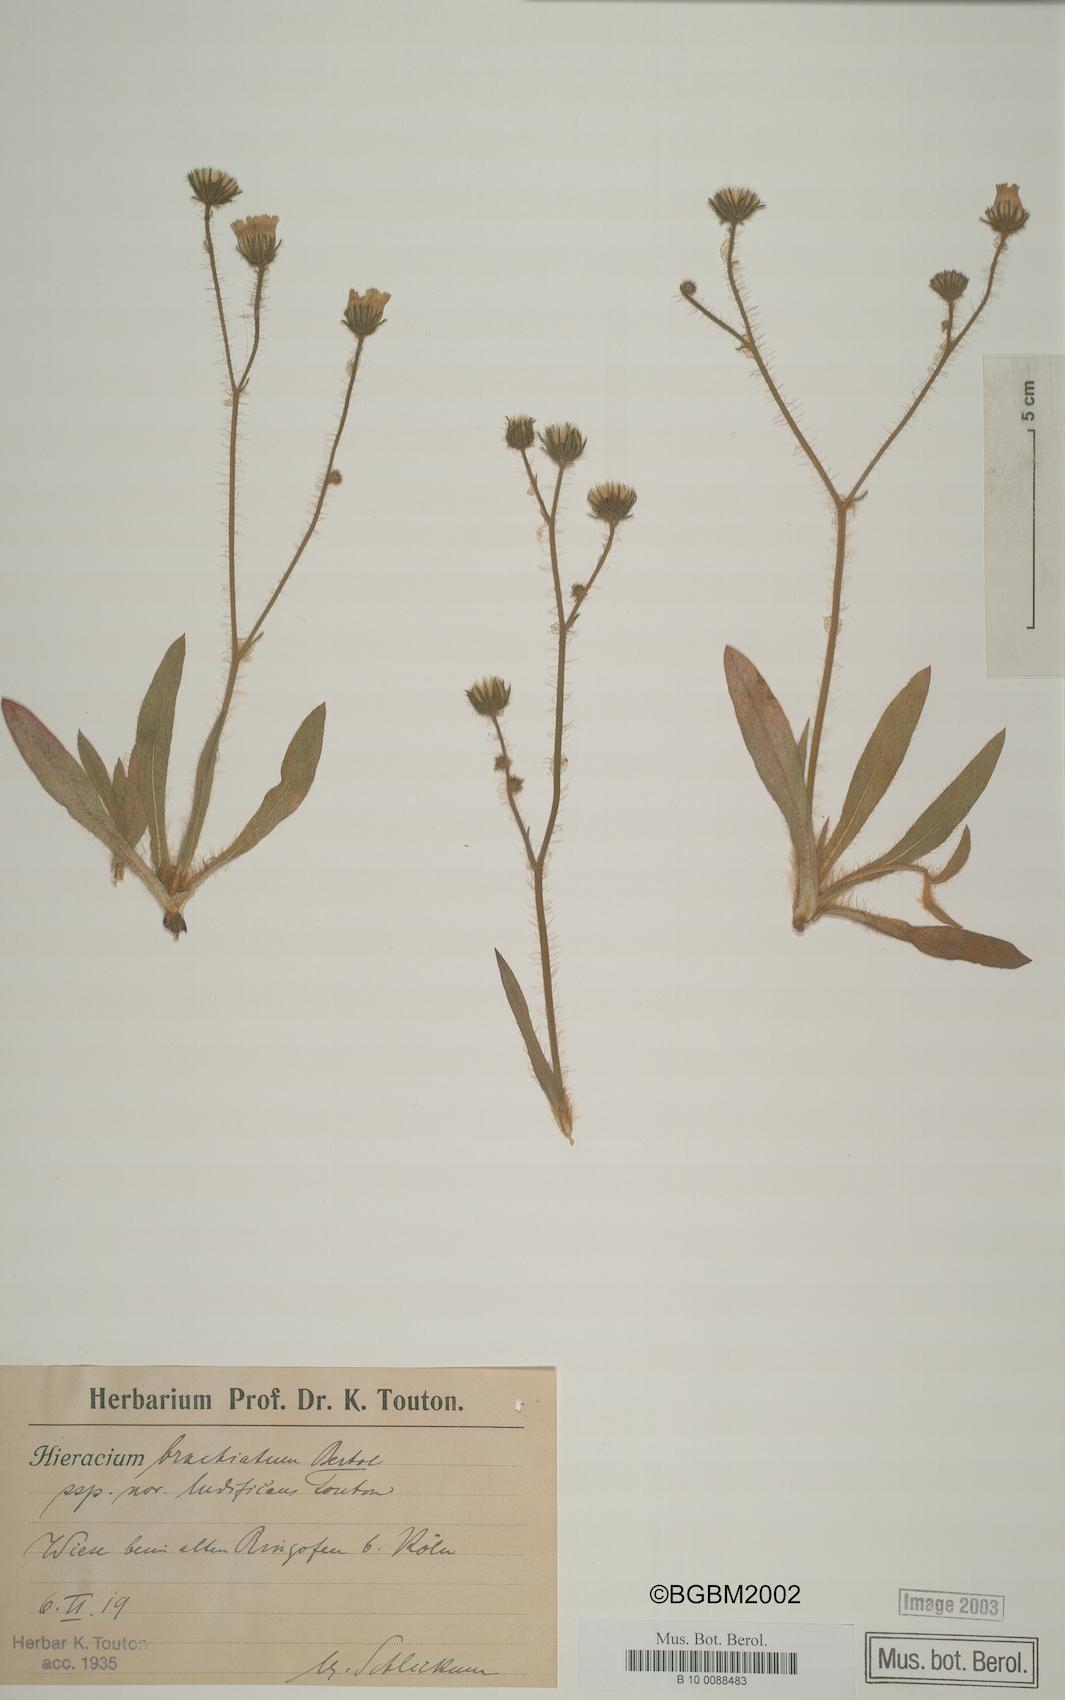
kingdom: Plantae
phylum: Tracheophyta
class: Magnoliopsida
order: Asterales
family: Asteraceae
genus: Pilosella
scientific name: Pilosella acutifolia
